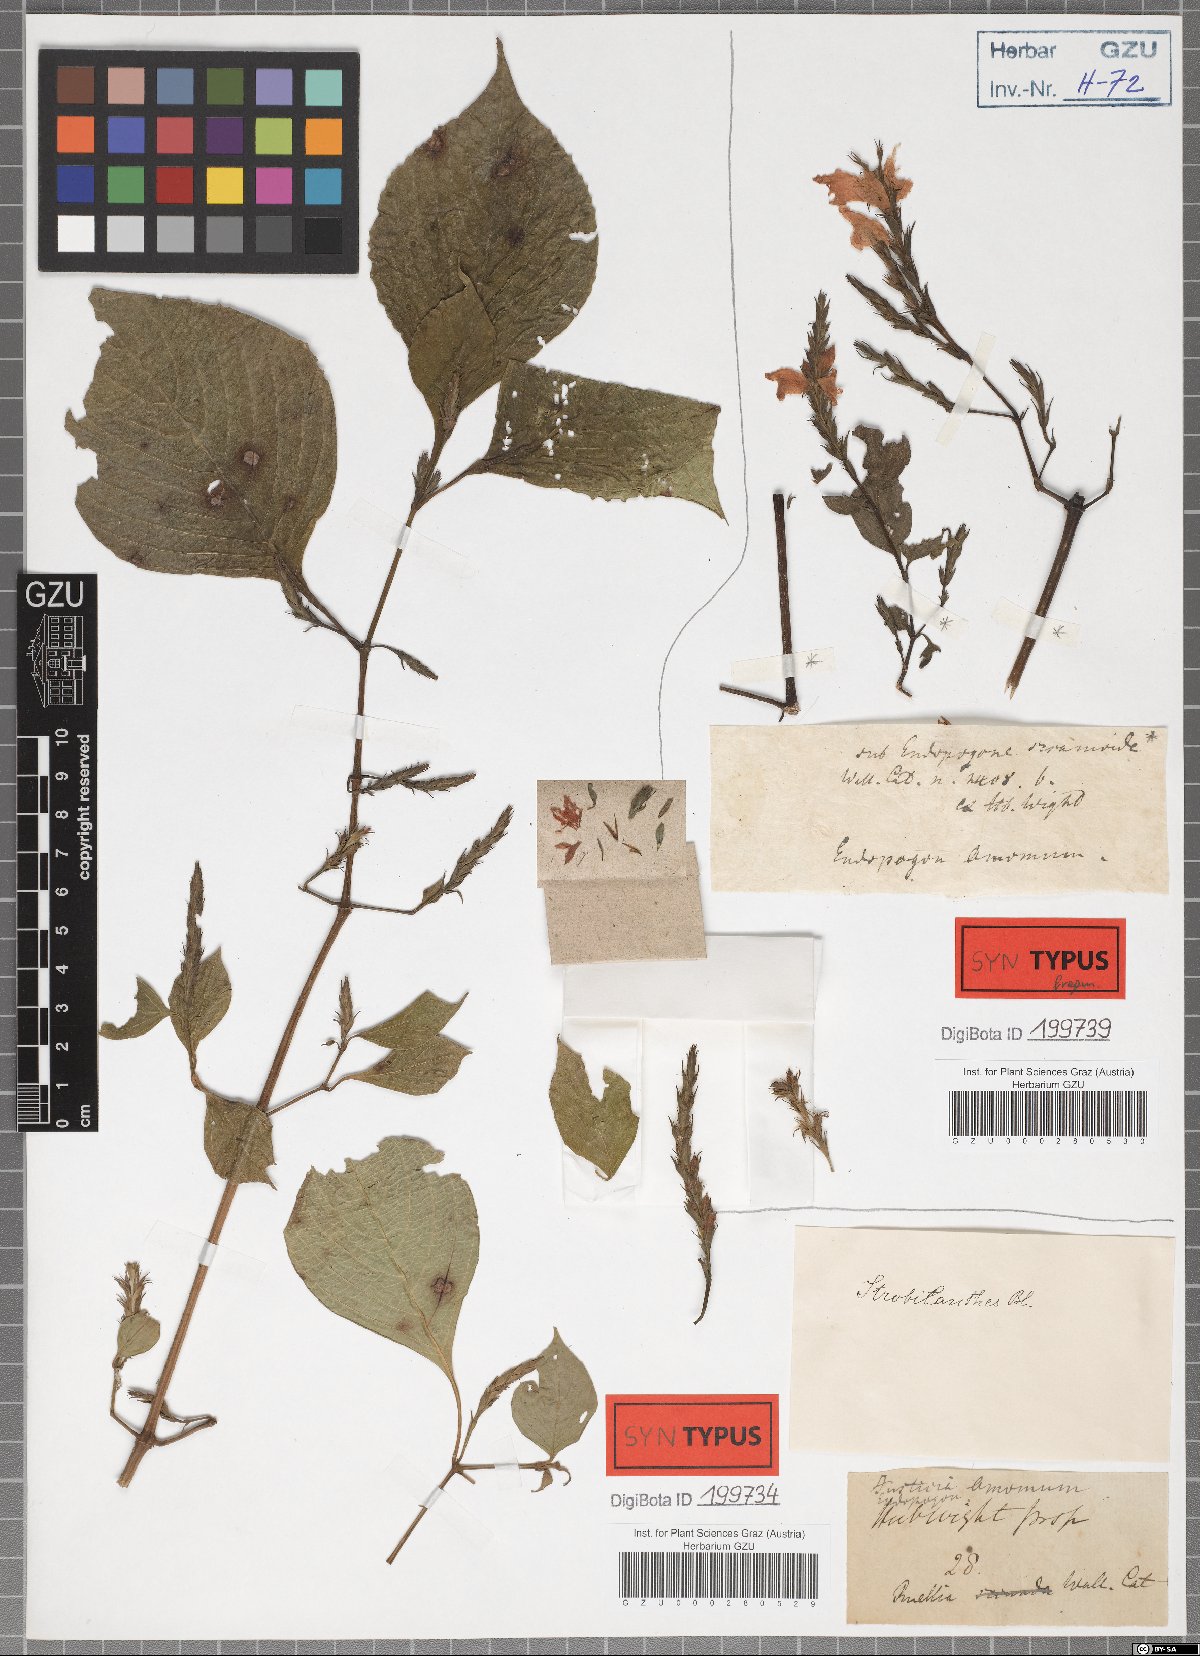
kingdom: Plantae
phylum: Tracheophyta
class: Magnoliopsida
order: Lamiales
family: Acanthaceae
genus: Strobilanthes
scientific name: Strobilanthes consanguinea
